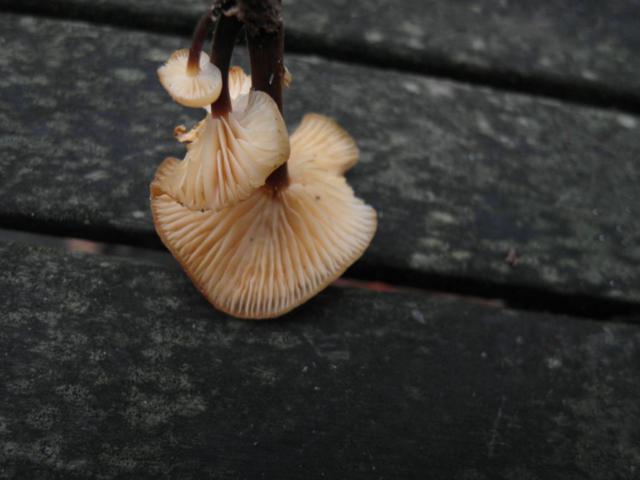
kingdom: Fungi
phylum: Basidiomycota
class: Agaricomycetes
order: Agaricales
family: Physalacriaceae
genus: Flammulina
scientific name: Flammulina elastica
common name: pile-fløjlsfod
